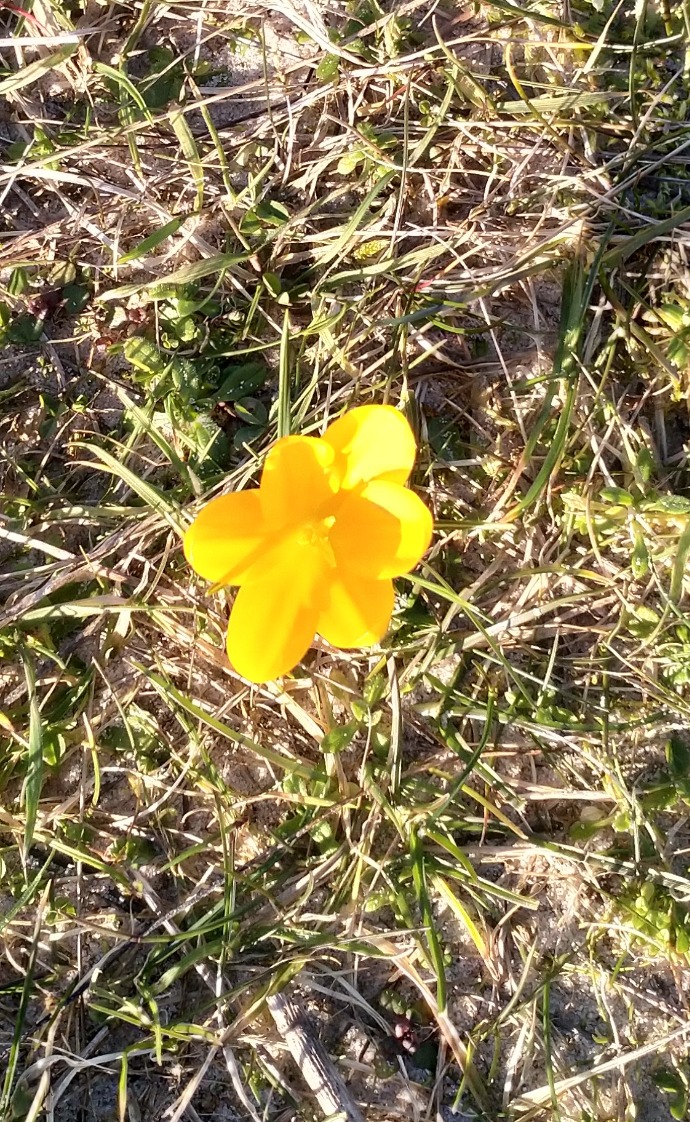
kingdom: Plantae
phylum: Tracheophyta
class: Liliopsida
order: Asparagales
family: Iridaceae
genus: Crocus
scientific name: Crocus luteus
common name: Gul krokus
